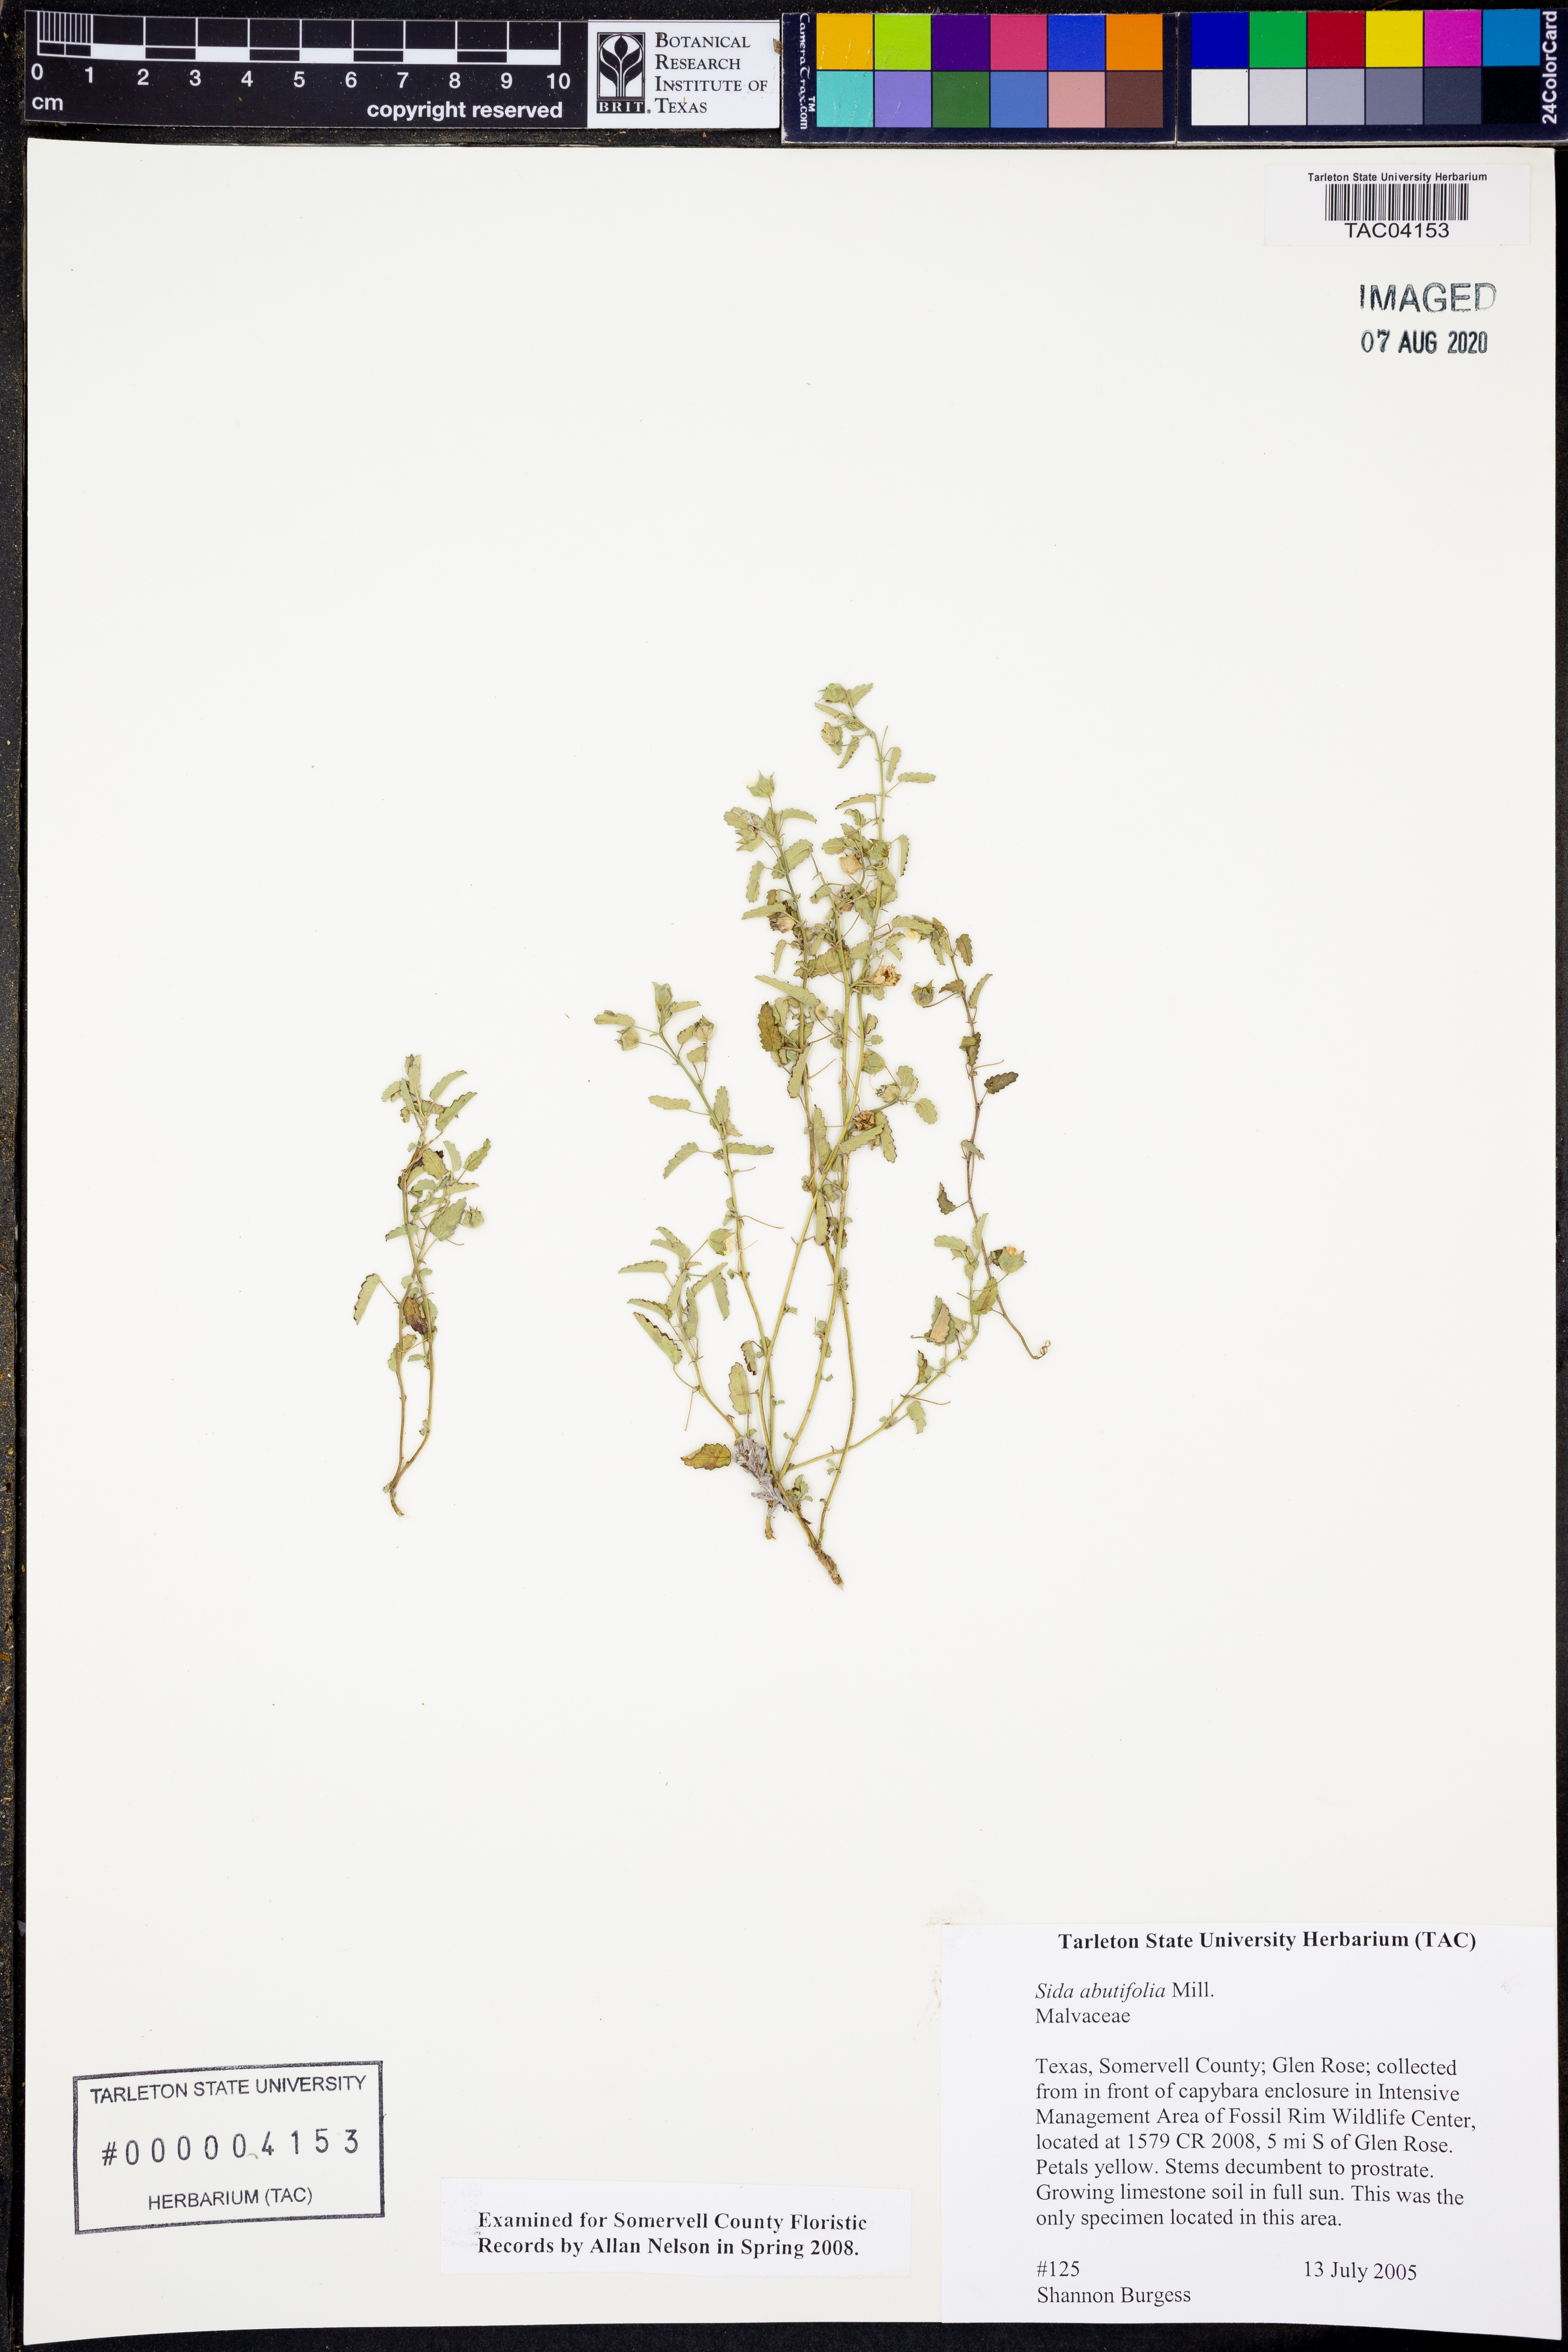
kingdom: Plantae
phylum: Tracheophyta
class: Magnoliopsida
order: Malvales
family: Malvaceae
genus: Sida
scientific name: Sida abutifolia
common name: Spreading fantails
